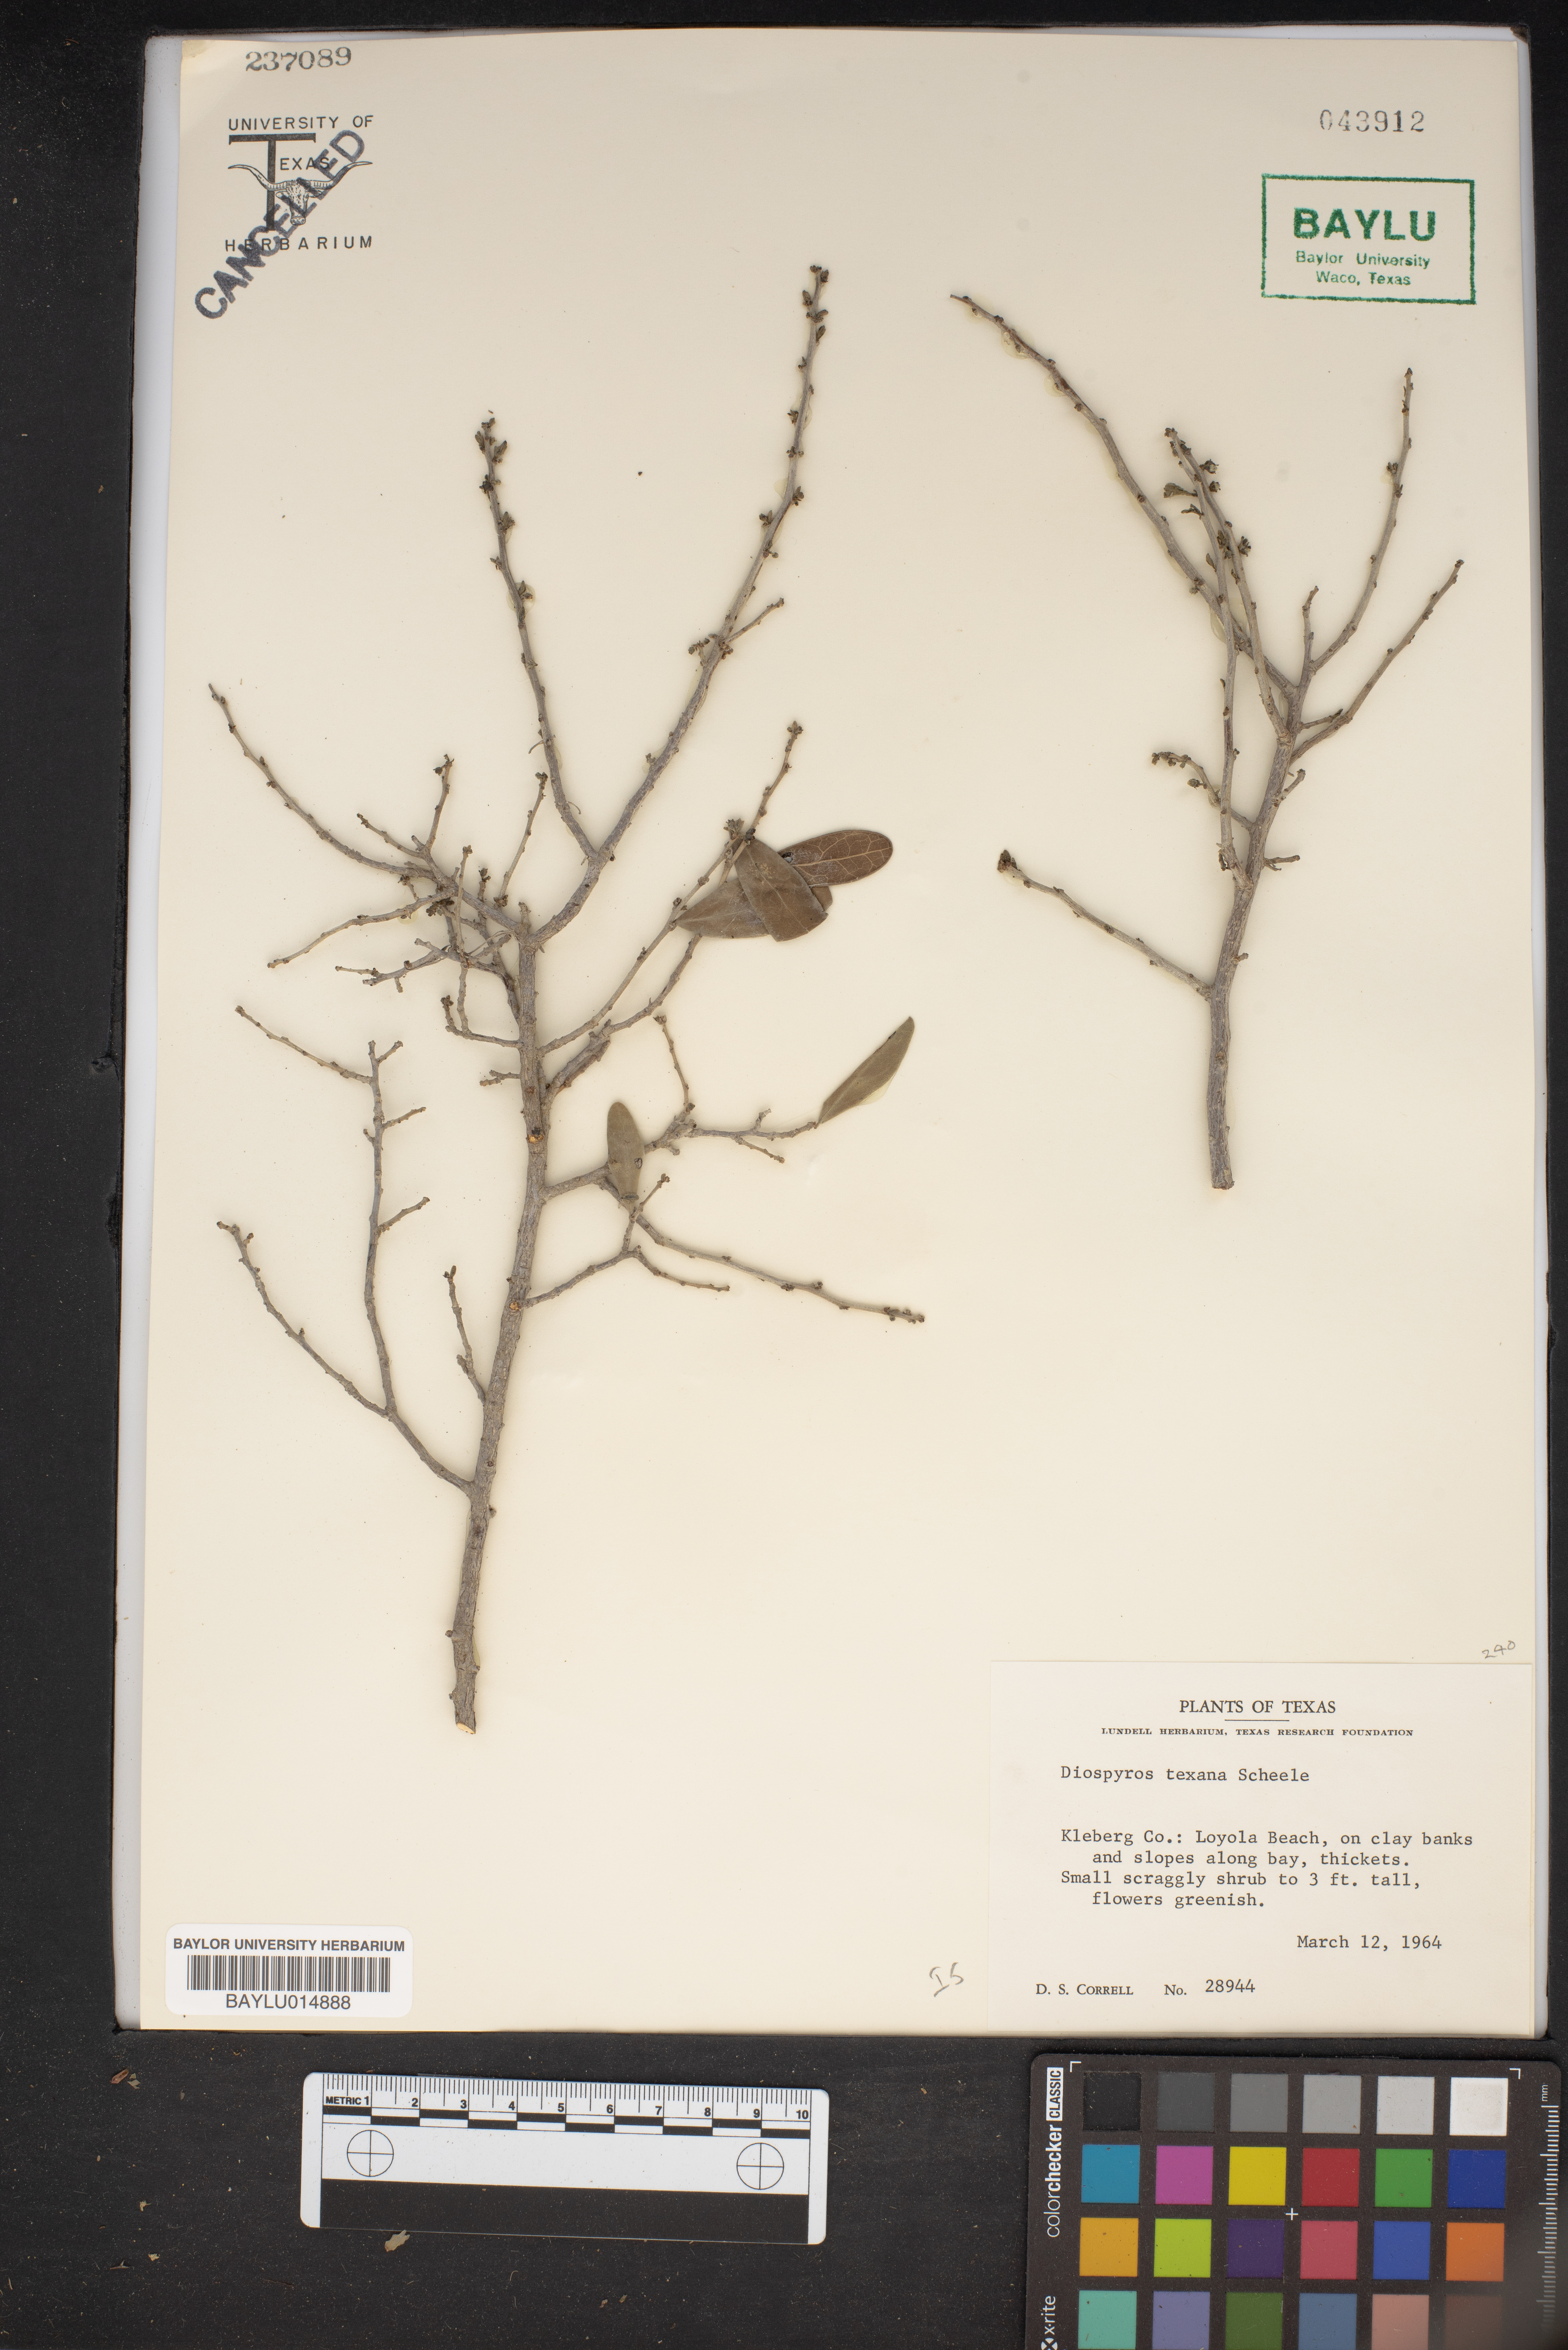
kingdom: Plantae
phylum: Tracheophyta
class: Magnoliopsida
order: Ericales
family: Ebenaceae
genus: Diospyros
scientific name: Diospyros texana
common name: Texas persimmon
